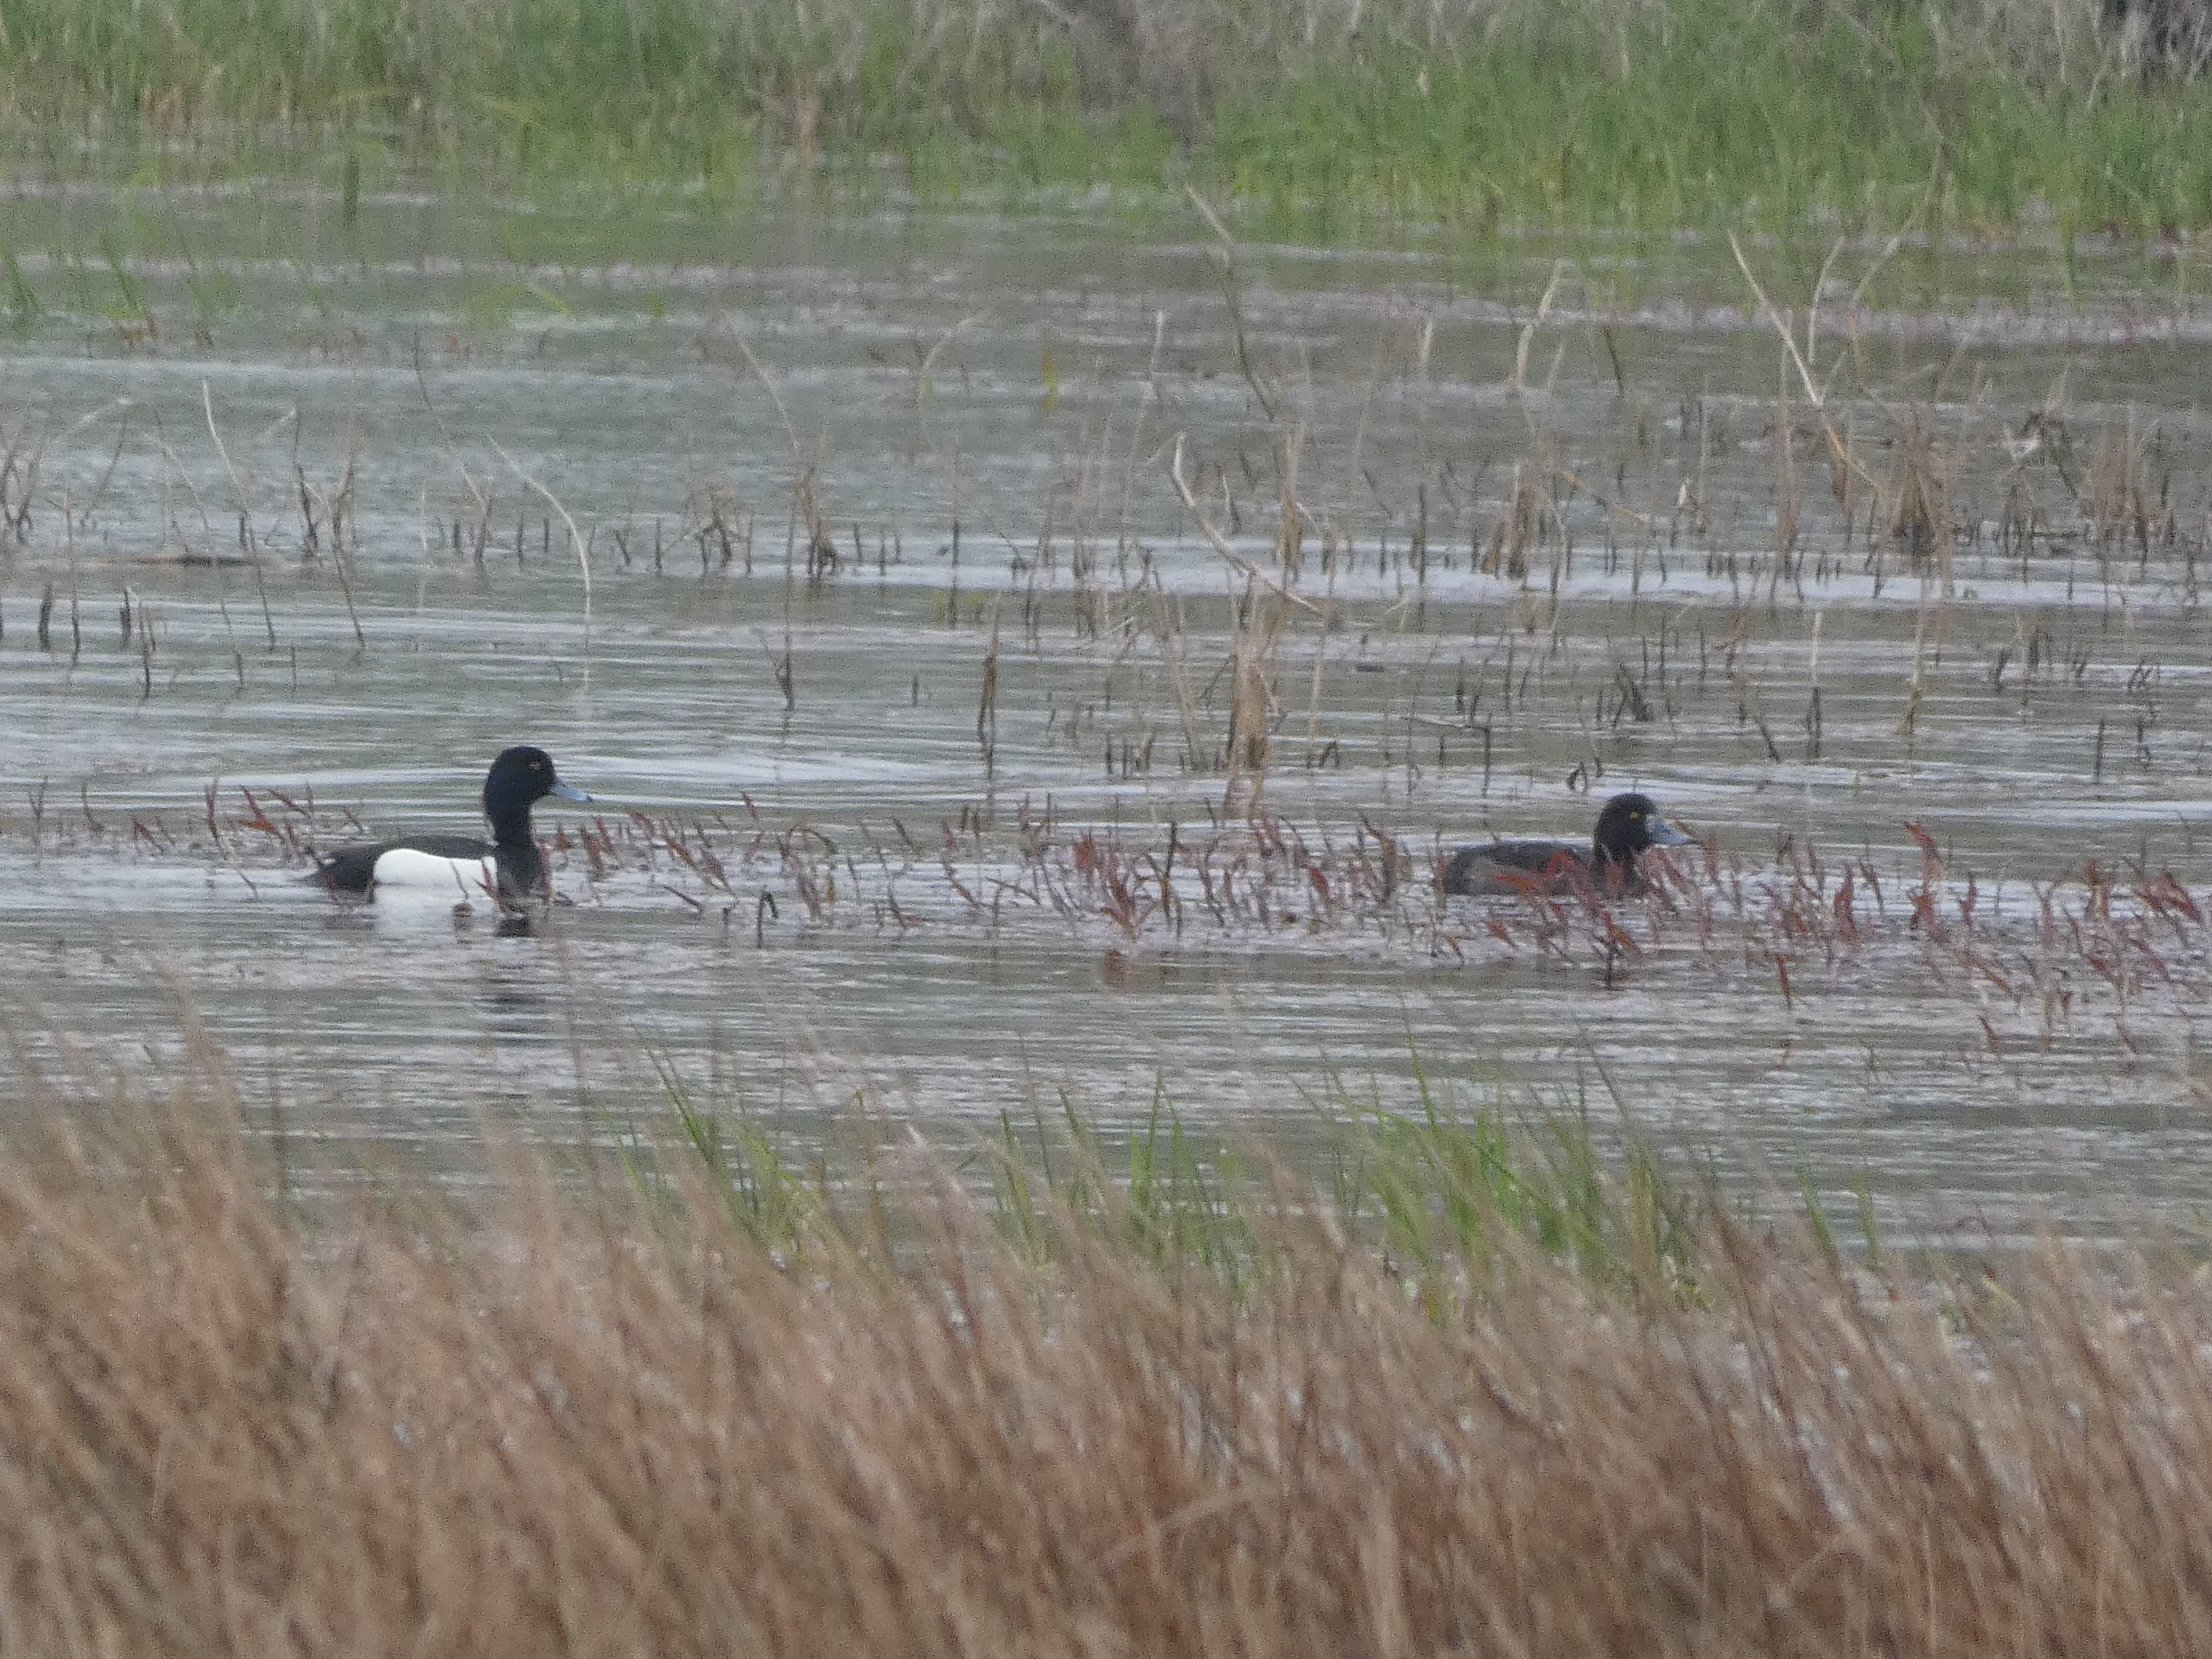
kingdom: Animalia
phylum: Chordata
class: Aves
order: Anseriformes
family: Anatidae
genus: Aythya
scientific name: Aythya fuligula
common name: Troldand
